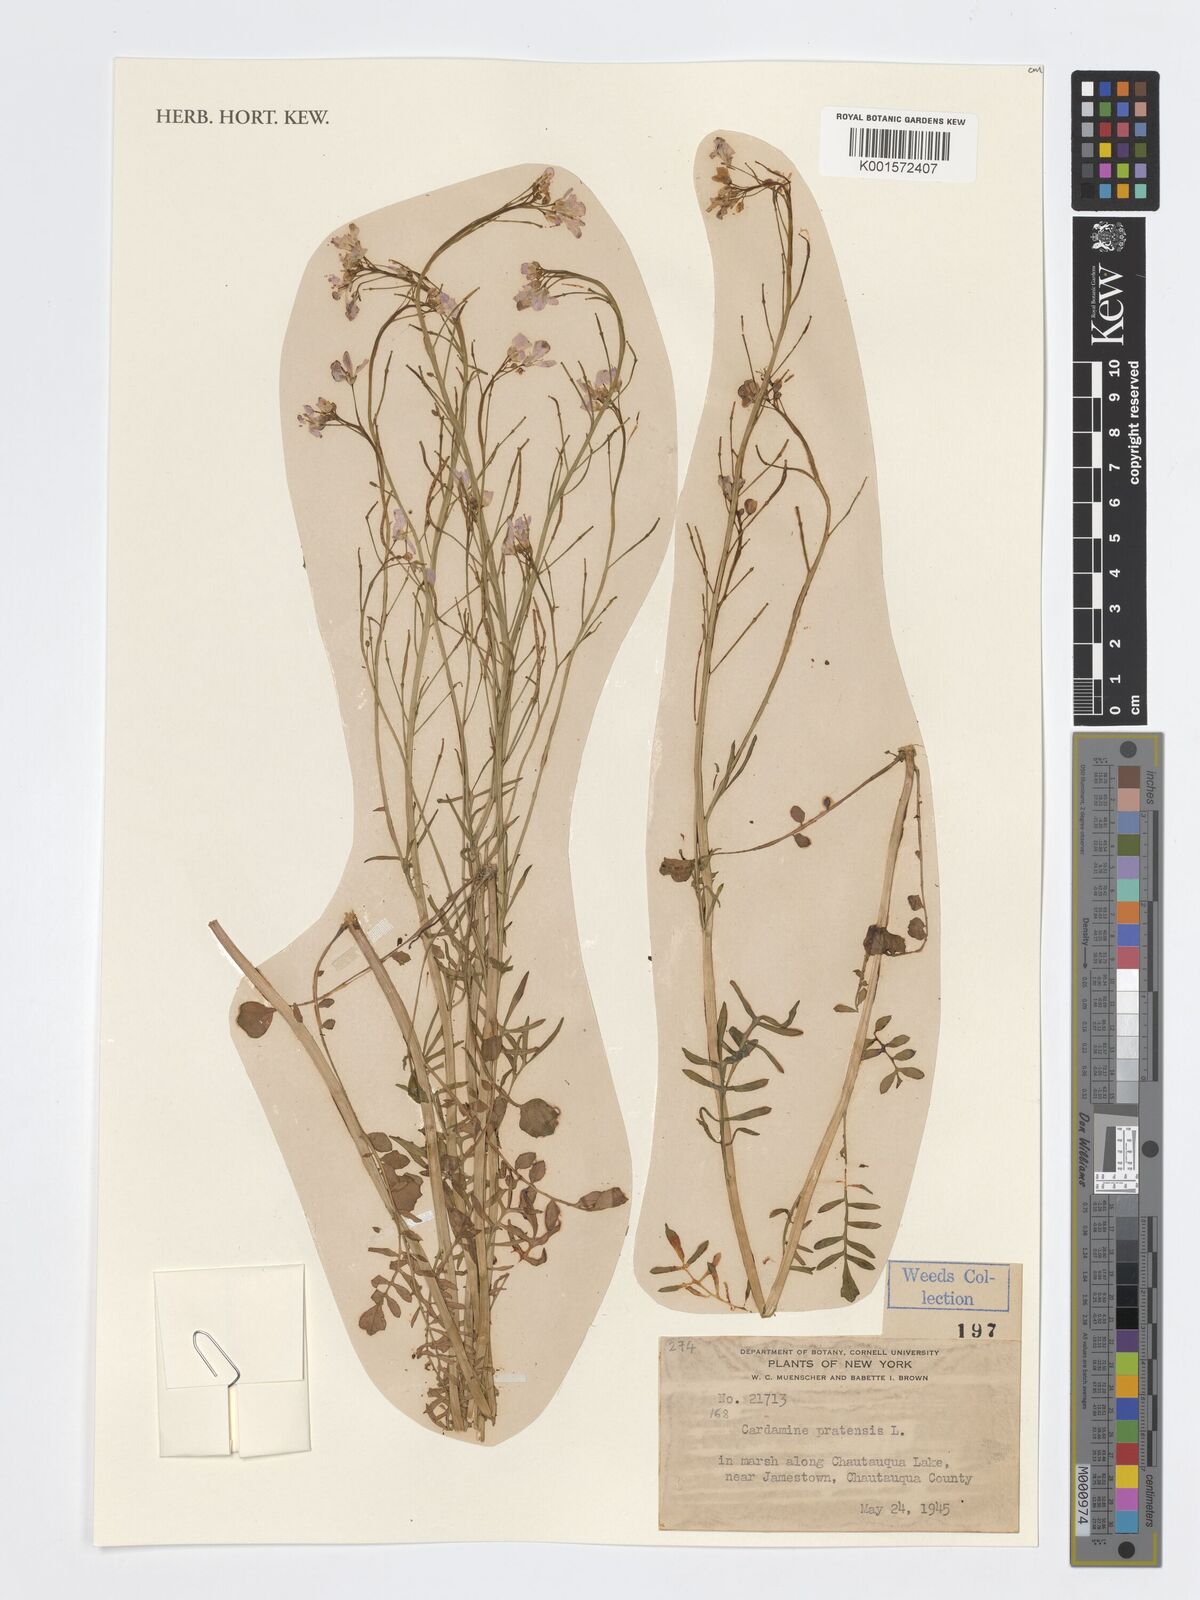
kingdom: Plantae
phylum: Tracheophyta
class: Magnoliopsida
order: Brassicales
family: Brassicaceae
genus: Cardamine
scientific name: Cardamine pratensis
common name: Cuckoo flower
